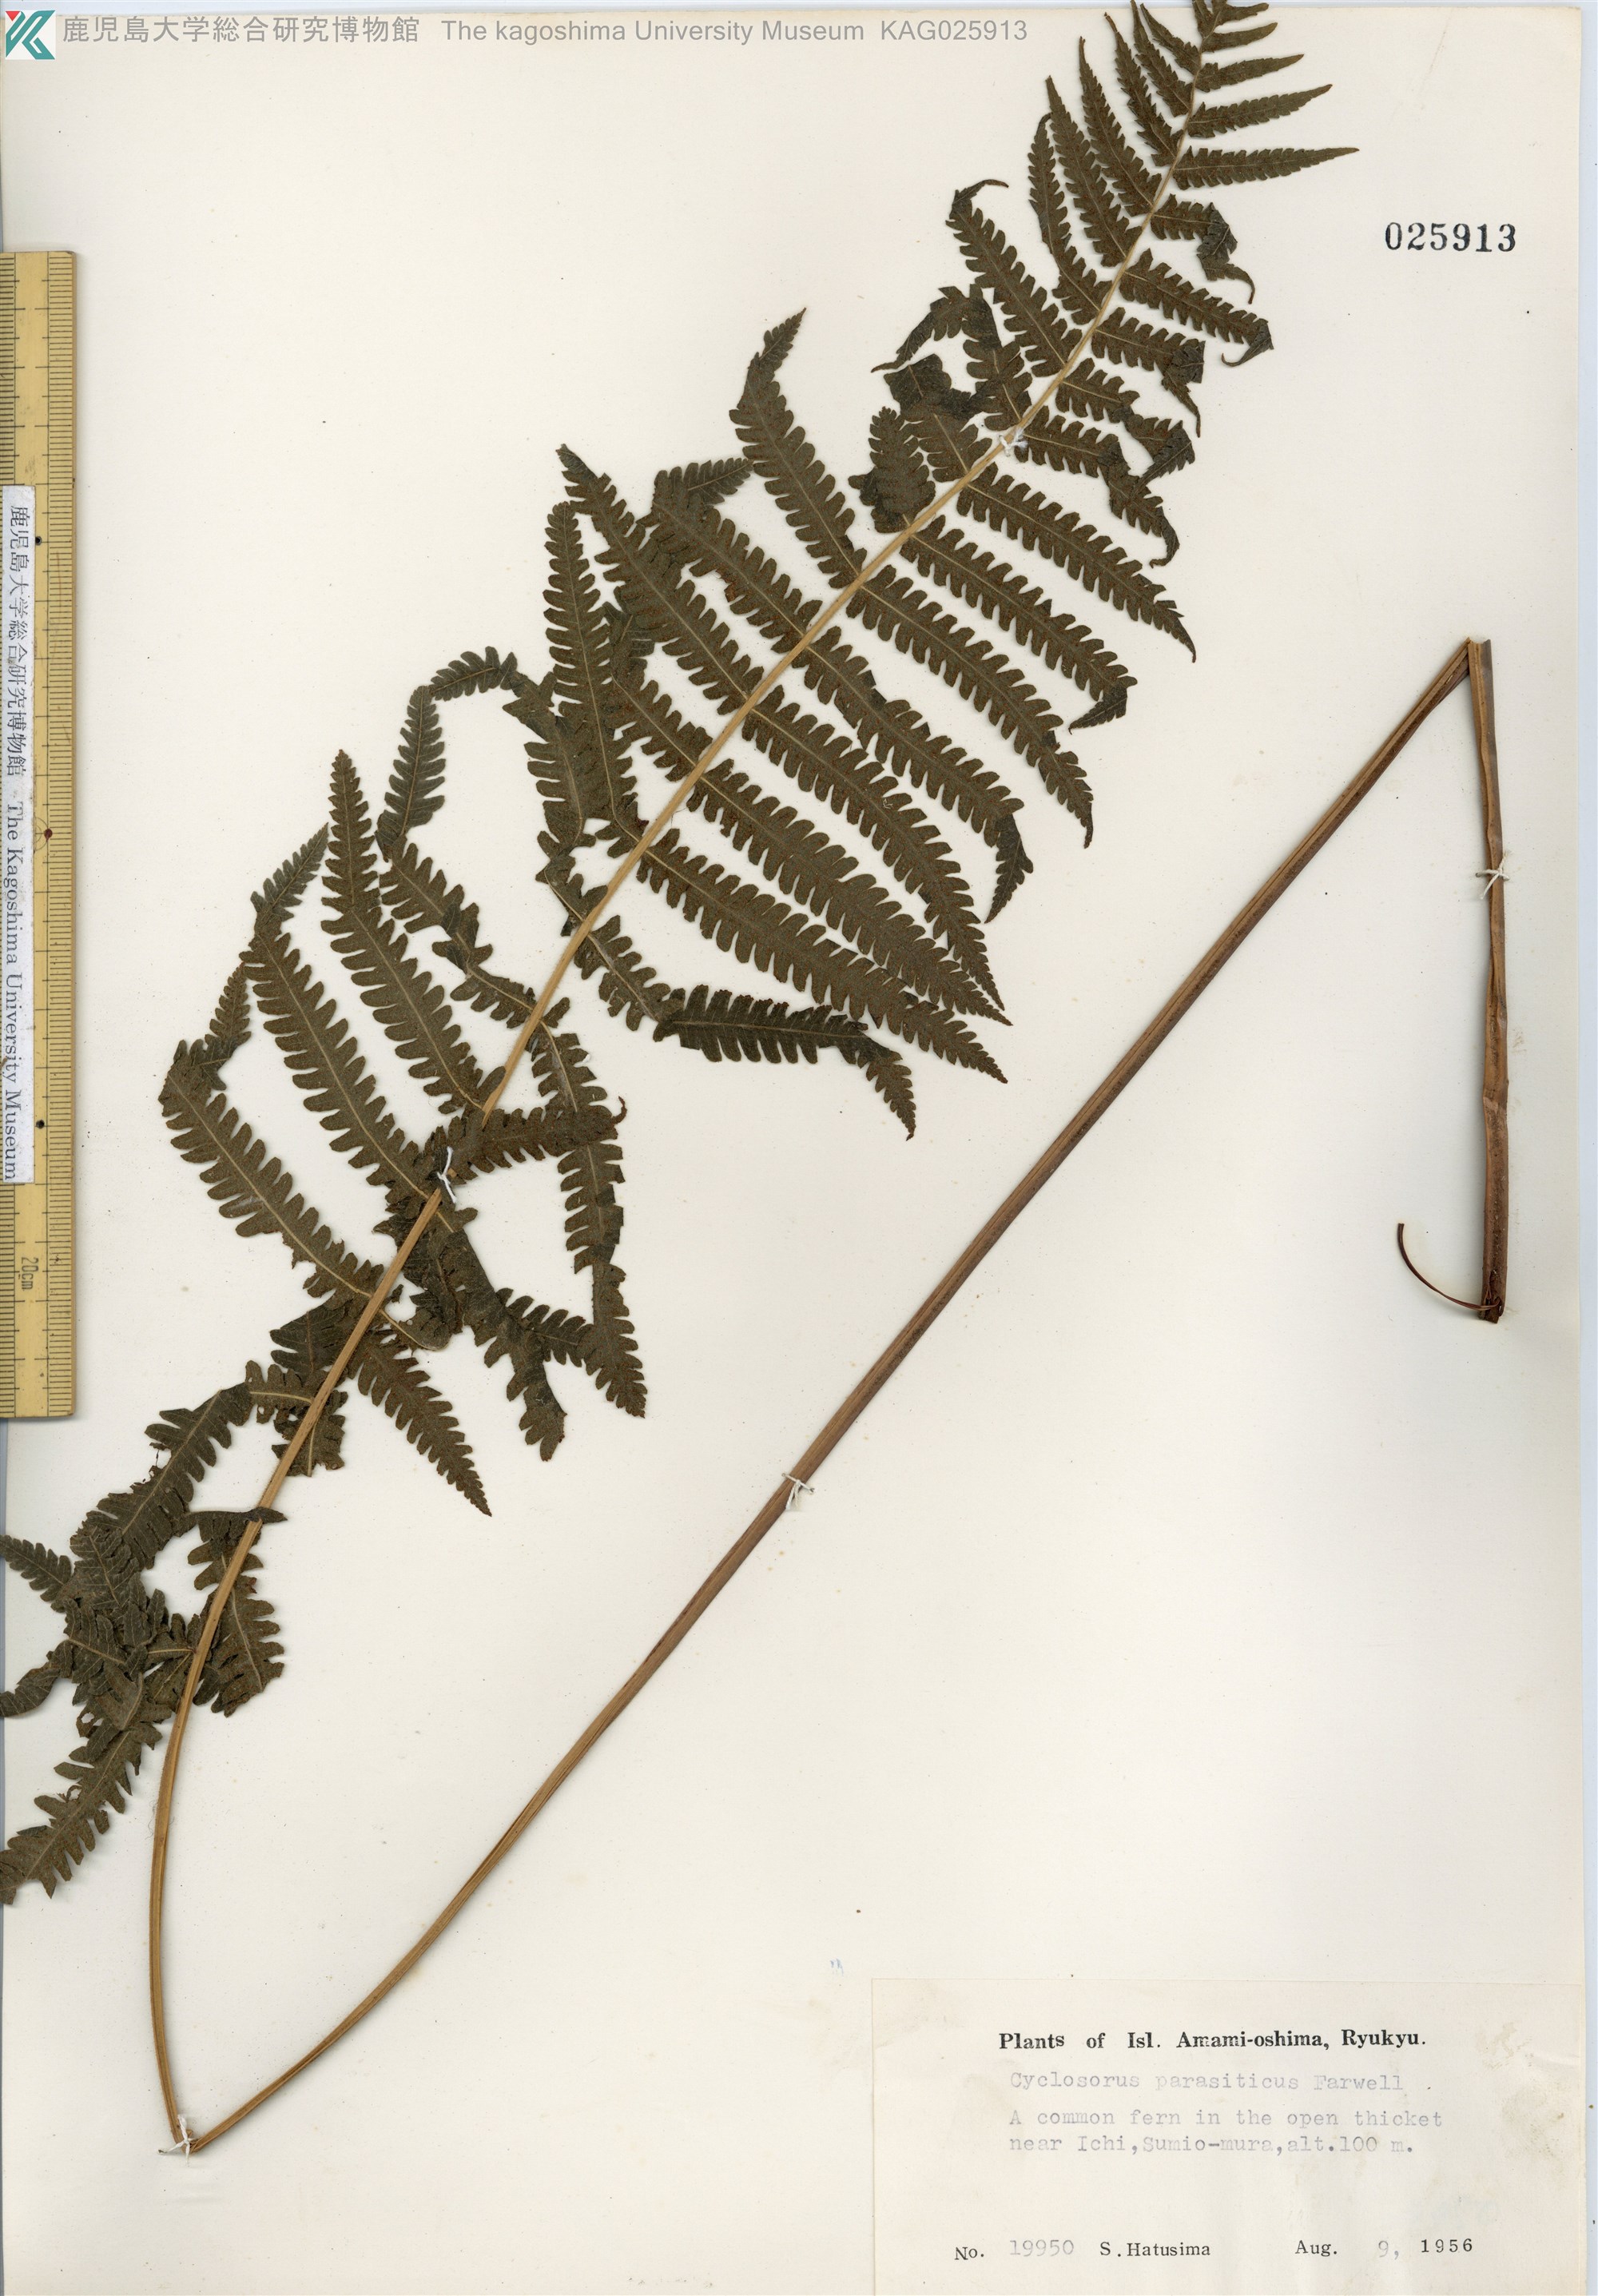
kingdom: Plantae
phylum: Tracheophyta
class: Polypodiopsida
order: Polypodiales
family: Thelypteridaceae
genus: Christella
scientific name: Christella parasitica
